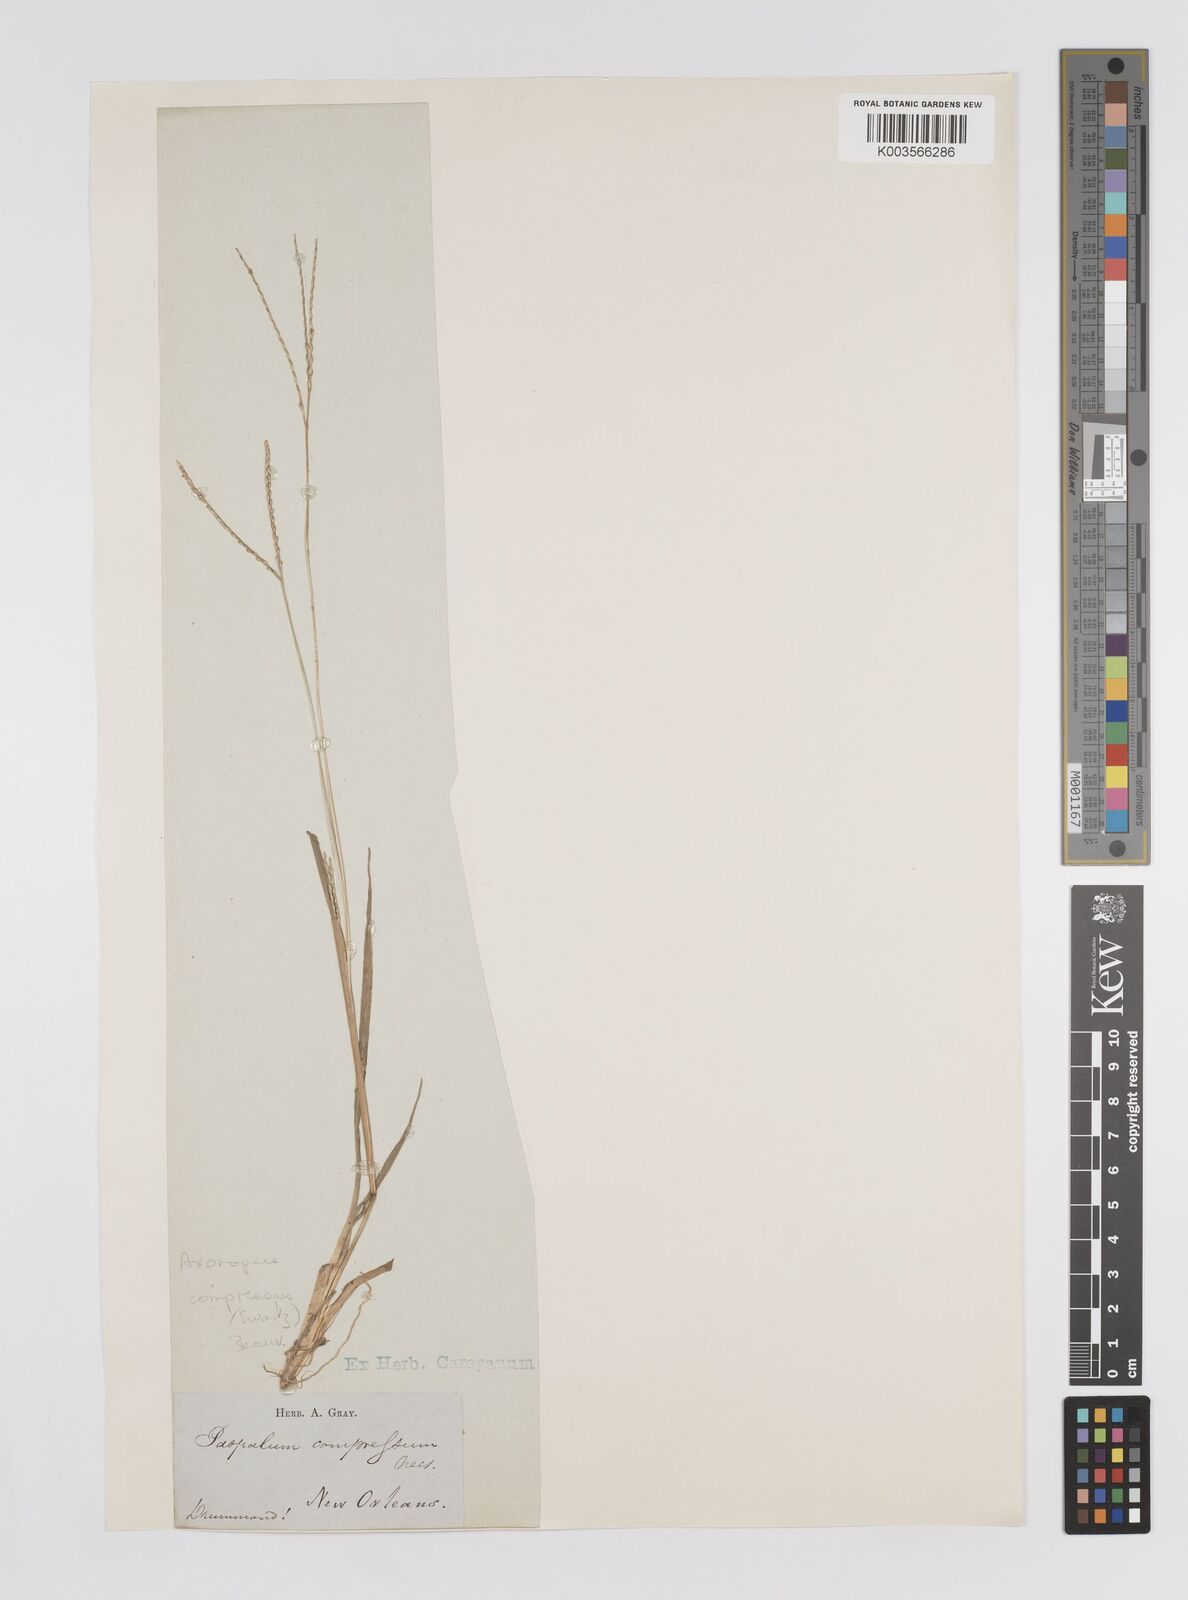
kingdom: Plantae
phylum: Tracheophyta
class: Liliopsida
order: Poales
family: Poaceae
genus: Axonopus
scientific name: Axonopus compressus
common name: American carpet grass
